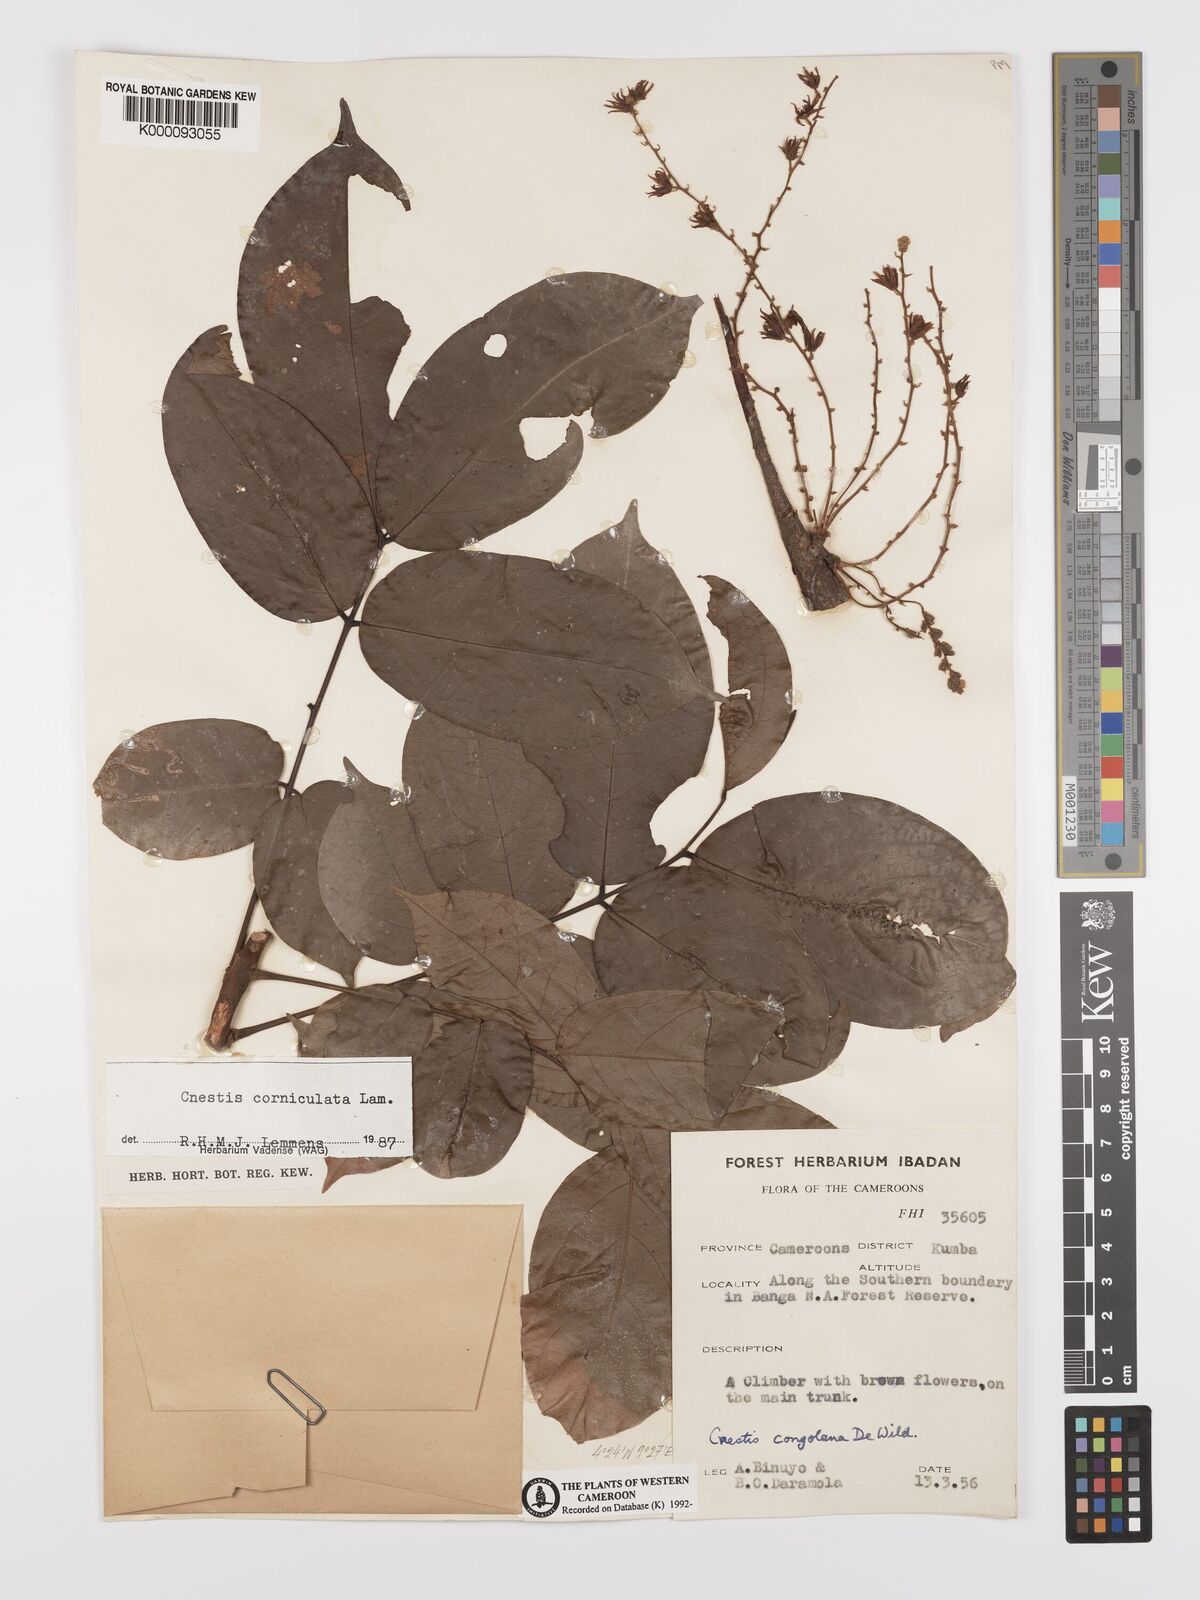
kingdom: Plantae
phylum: Tracheophyta
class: Magnoliopsida
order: Oxalidales
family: Connaraceae
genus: Cnestis
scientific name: Cnestis corniculata
